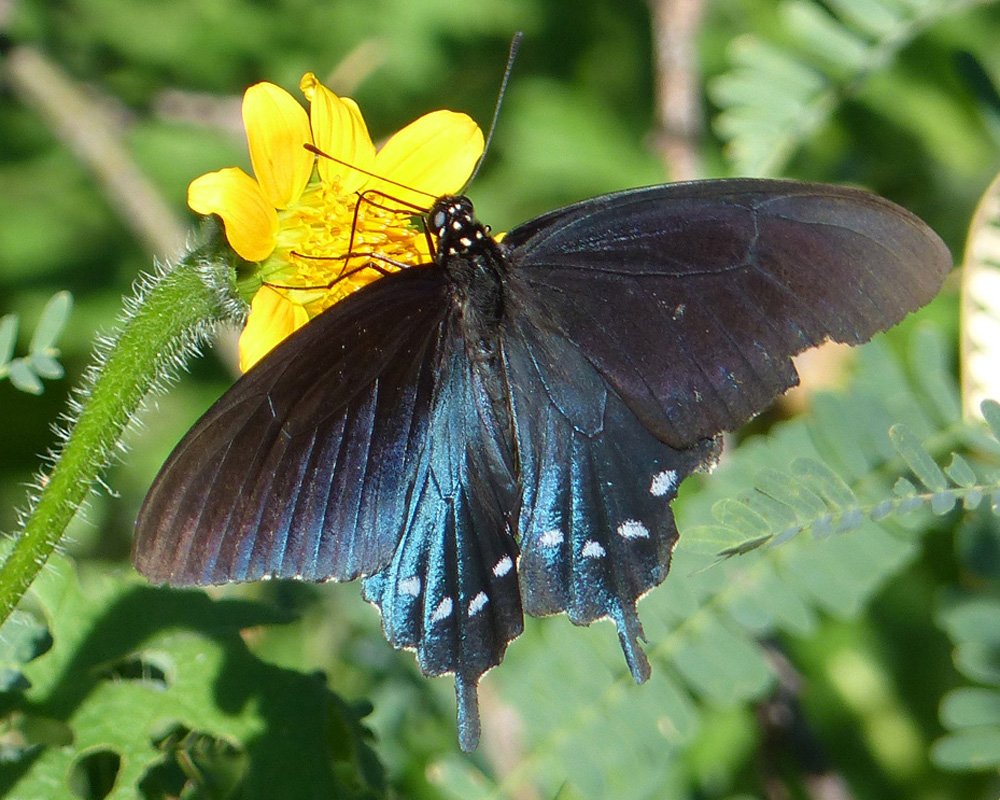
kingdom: Animalia
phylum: Arthropoda
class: Insecta
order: Lepidoptera
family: Papilionidae
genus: Battus
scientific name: Battus philenor
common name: Pipevine Swallowtail
